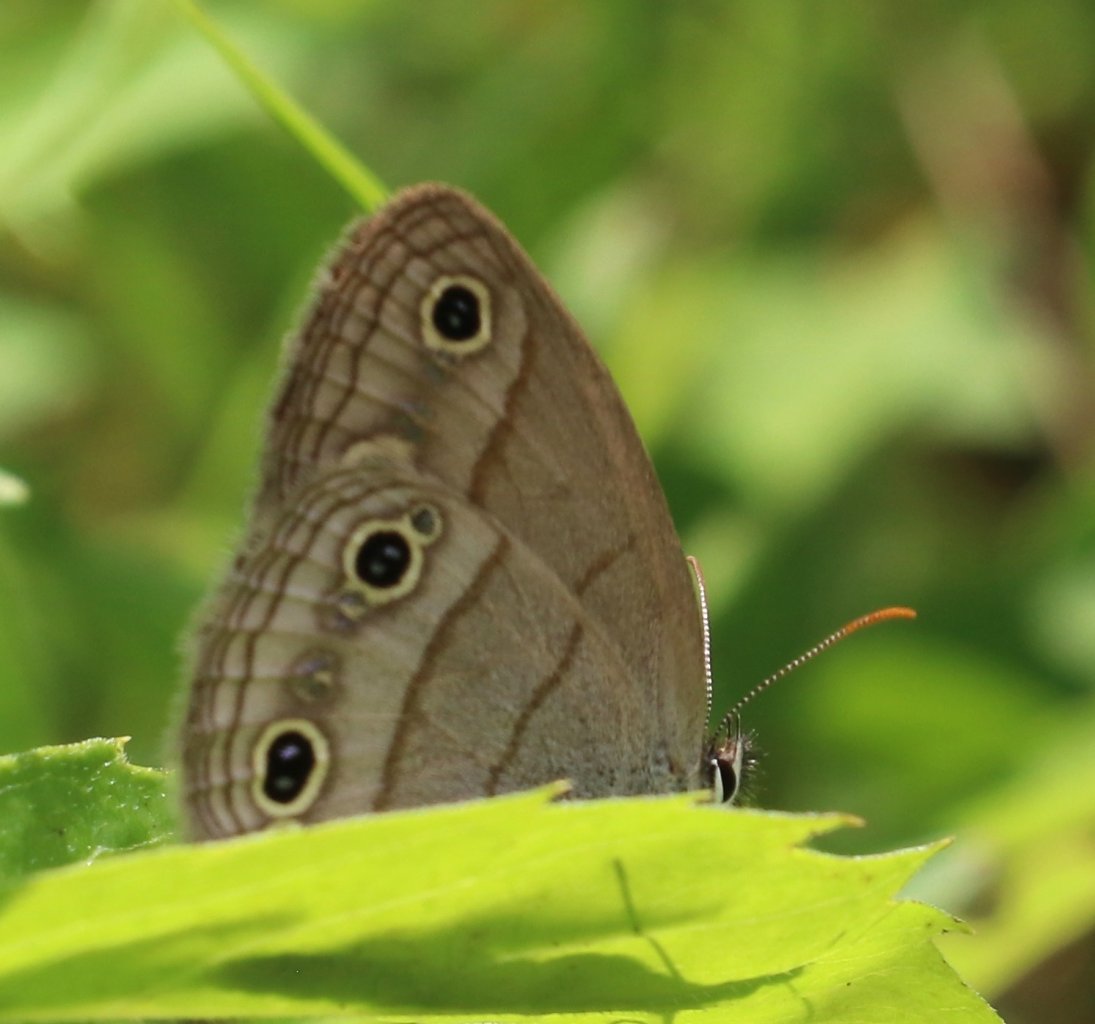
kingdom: Animalia
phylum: Arthropoda
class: Insecta
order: Lepidoptera
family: Nymphalidae
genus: Euptychia
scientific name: Euptychia cymela
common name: Little Wood Satyr
